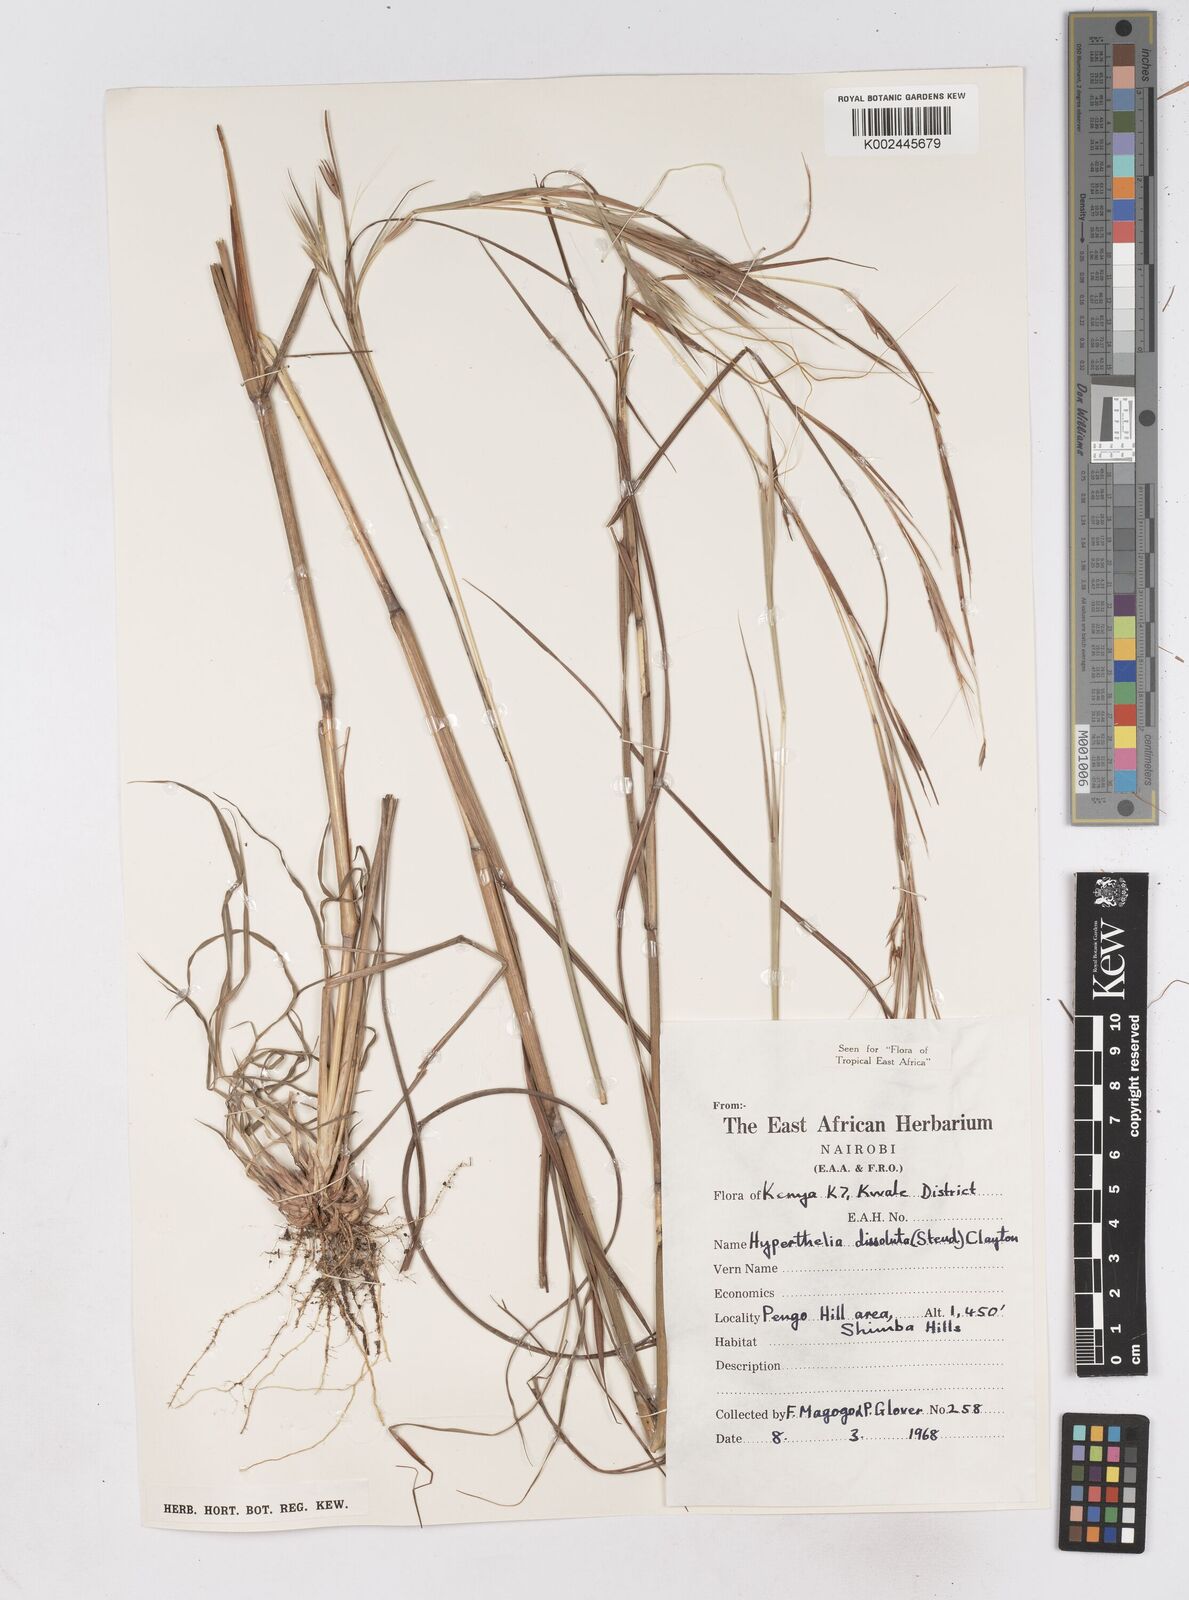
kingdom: Plantae
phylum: Tracheophyta
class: Liliopsida
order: Poales
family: Poaceae
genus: Hyperthelia
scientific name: Hyperthelia dissoluta
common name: Yellow thatching grass
